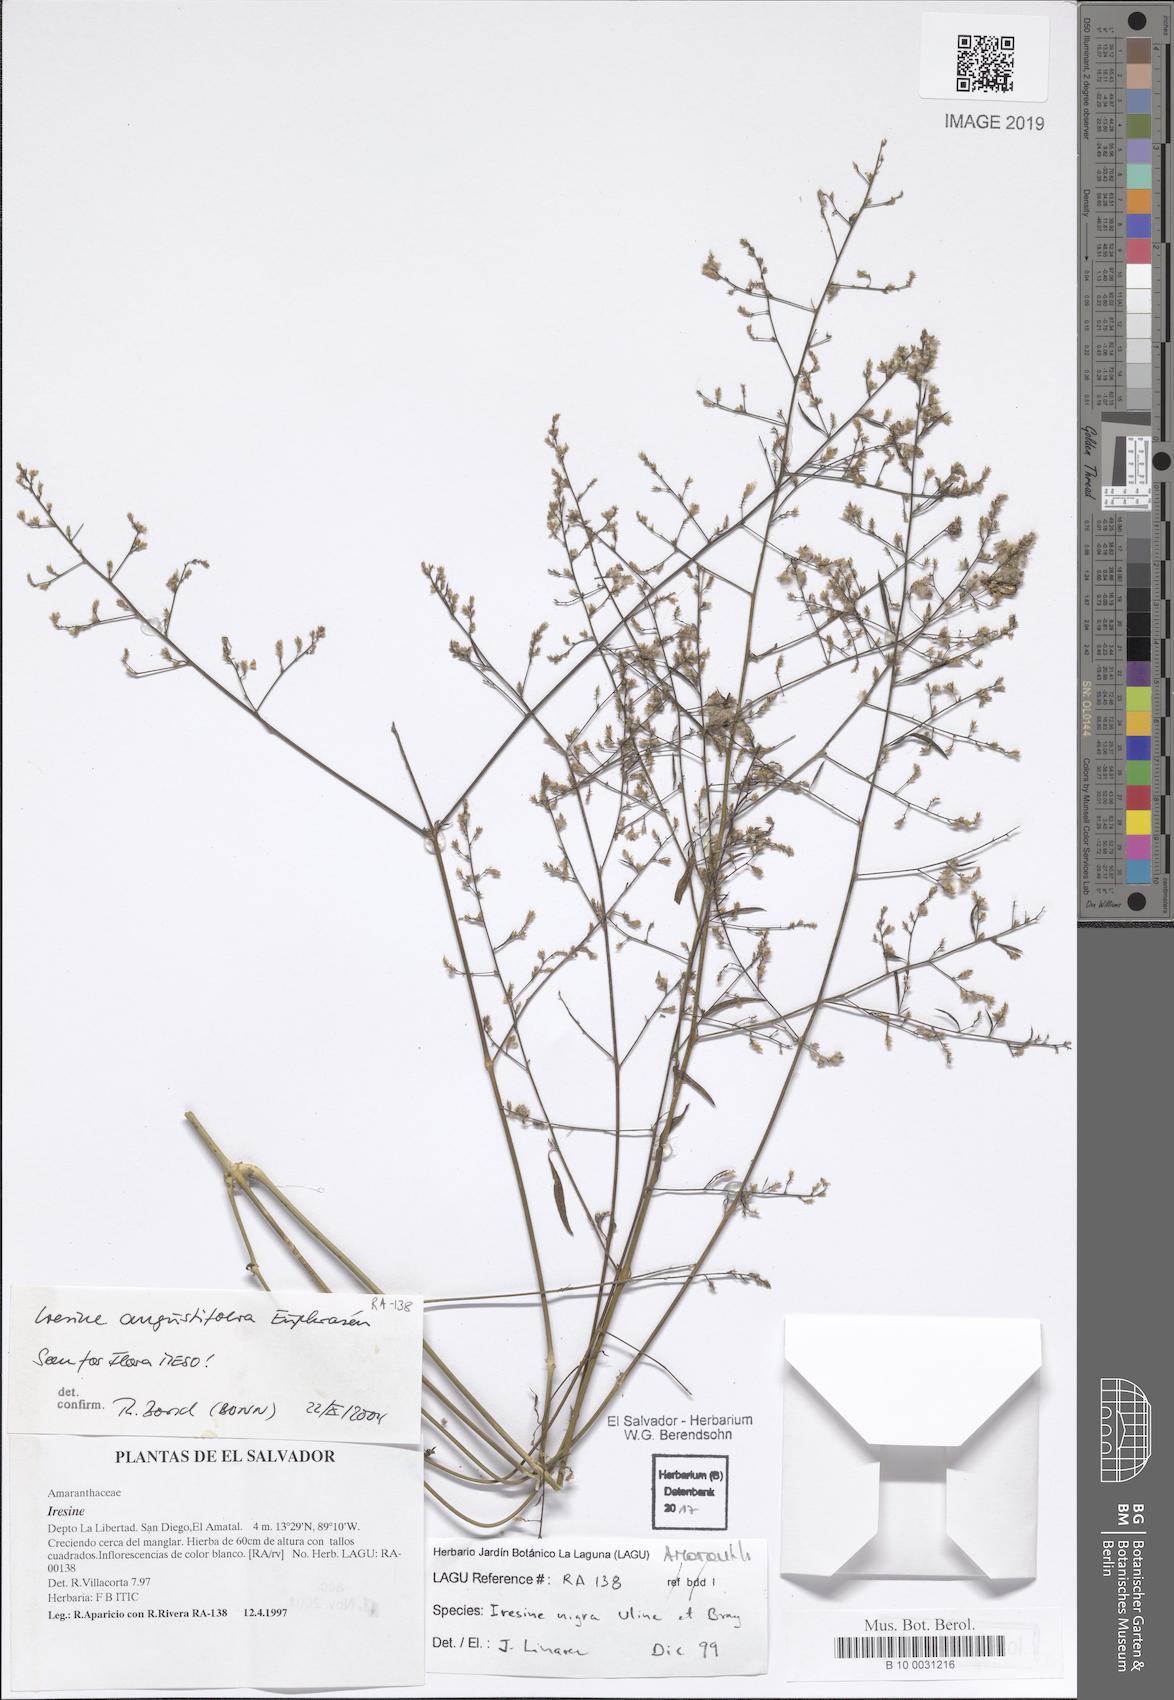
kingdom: Plantae
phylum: Tracheophyta
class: Magnoliopsida
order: Caryophyllales
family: Amaranthaceae
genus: Iresine
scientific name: Iresine nigra
